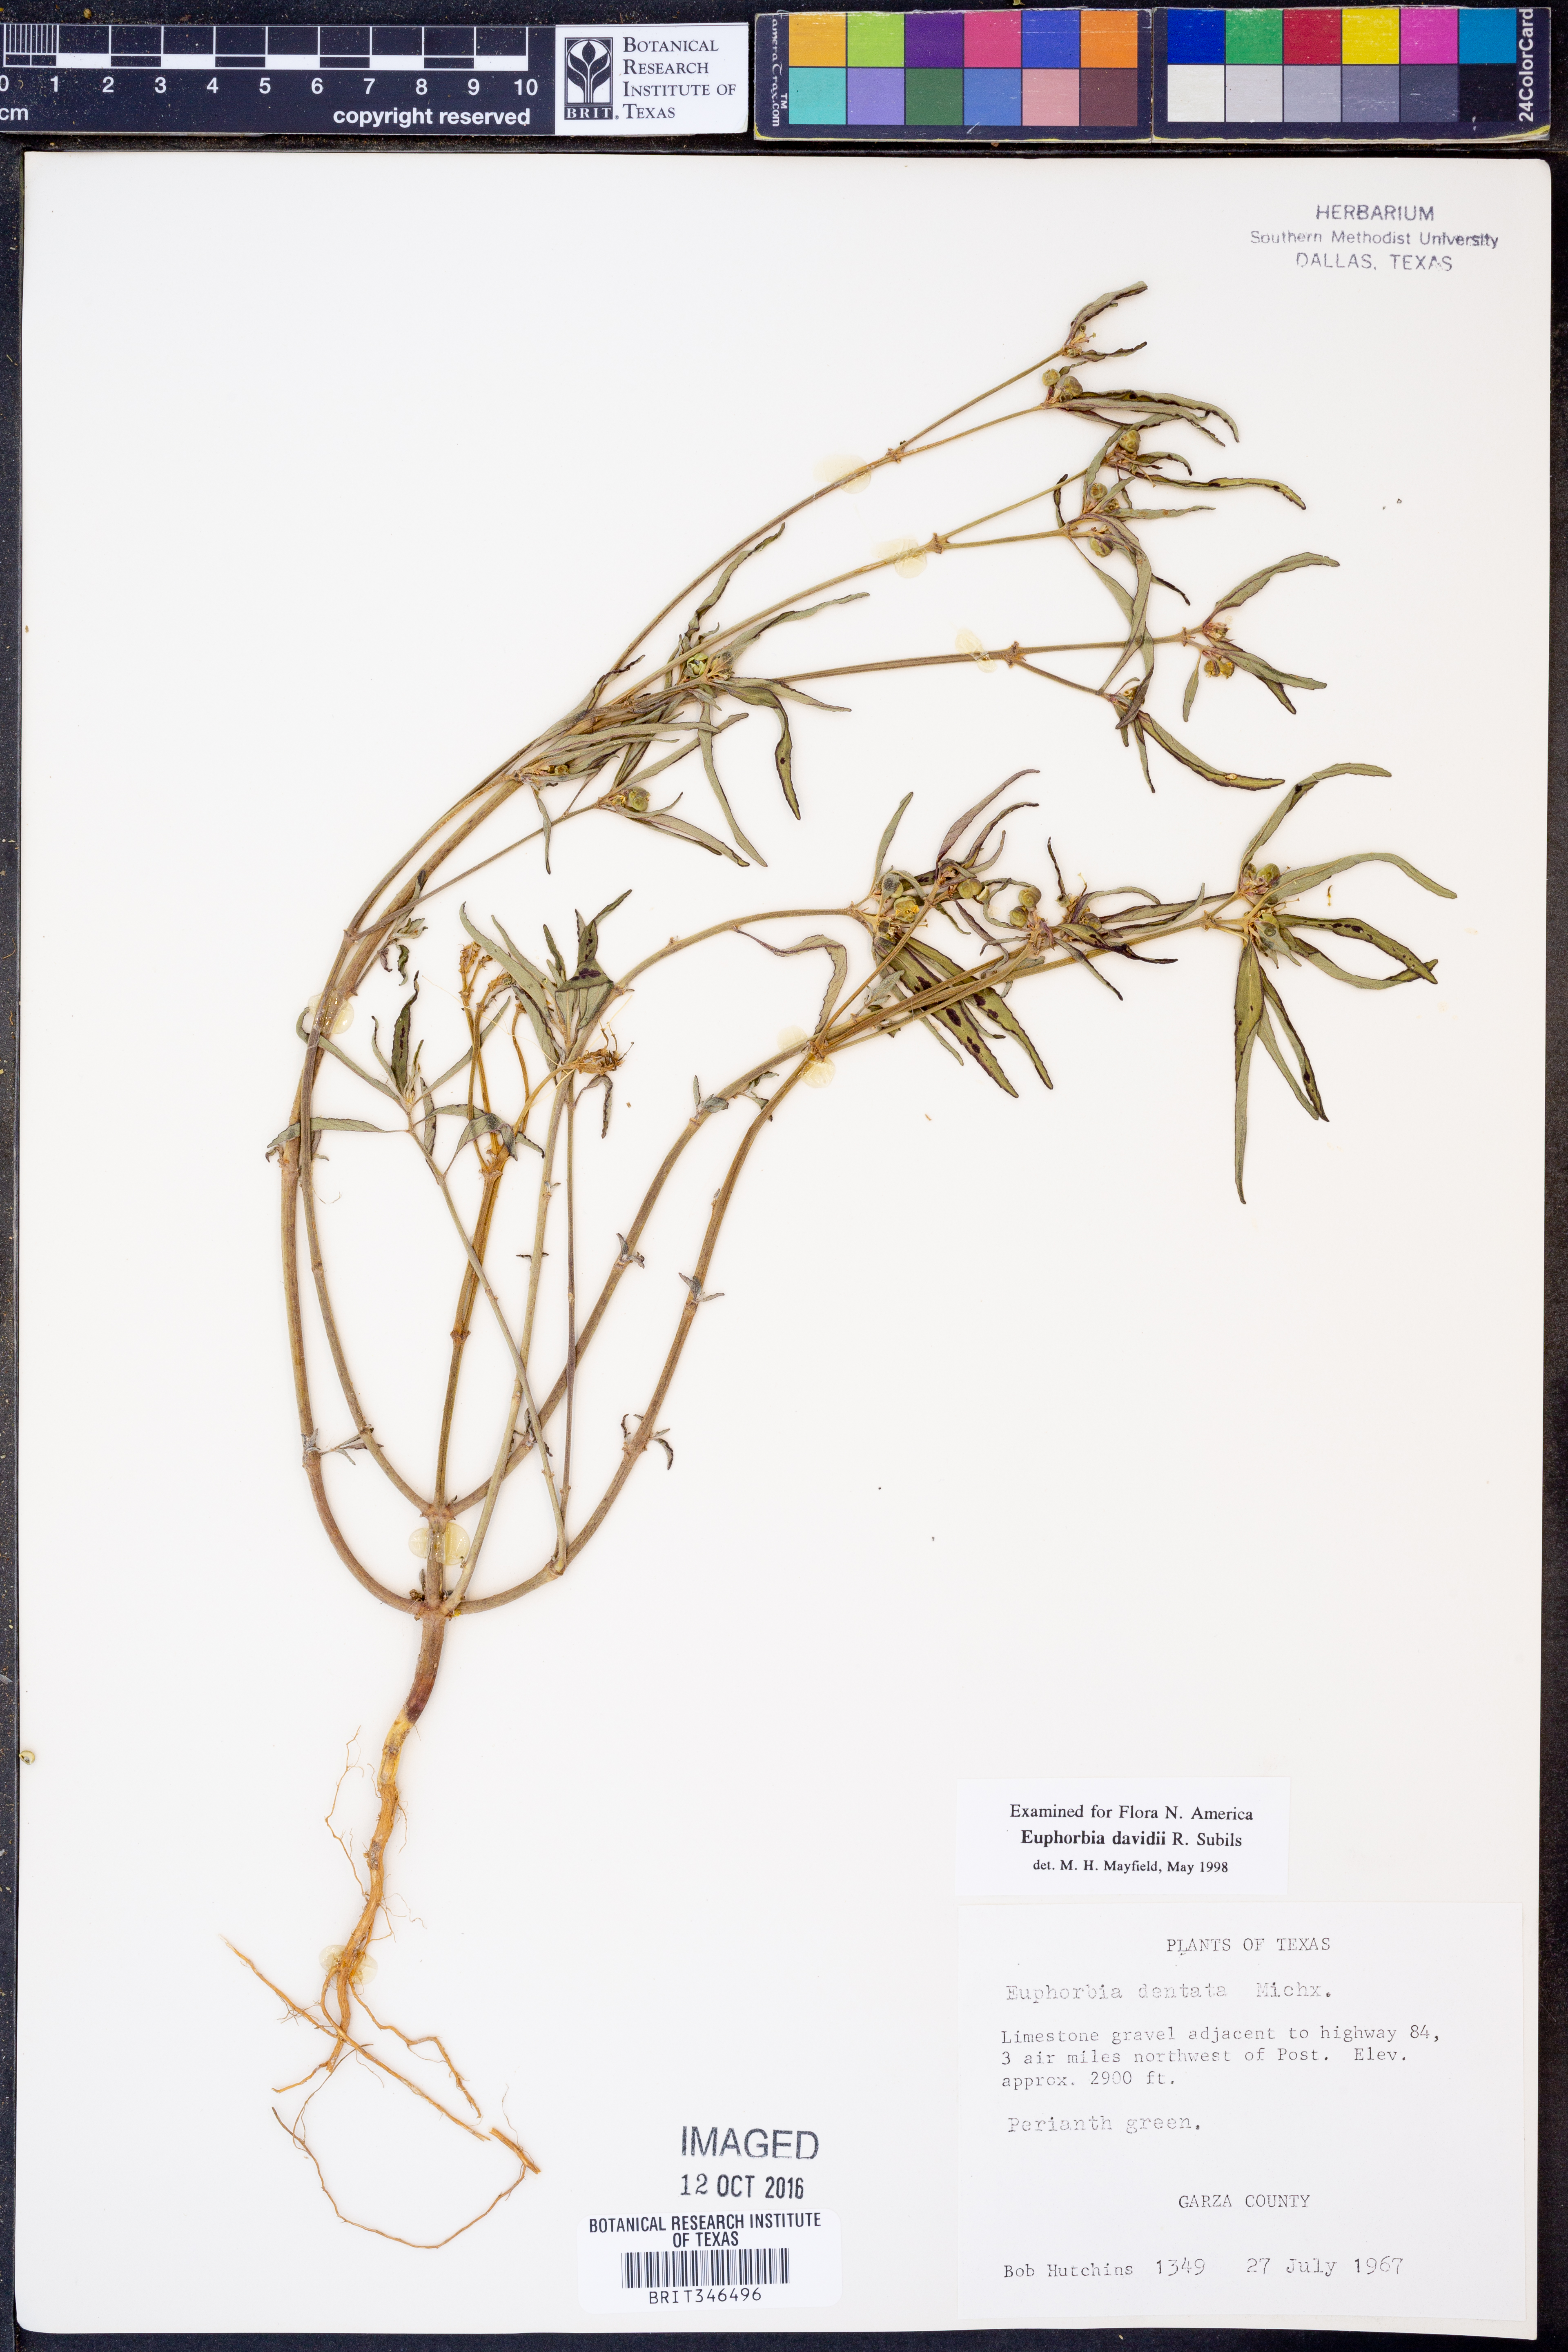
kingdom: Plantae
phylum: Tracheophyta
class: Magnoliopsida
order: Malpighiales
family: Euphorbiaceae
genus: Euphorbia
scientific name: Euphorbia davidii
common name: David's spurge
